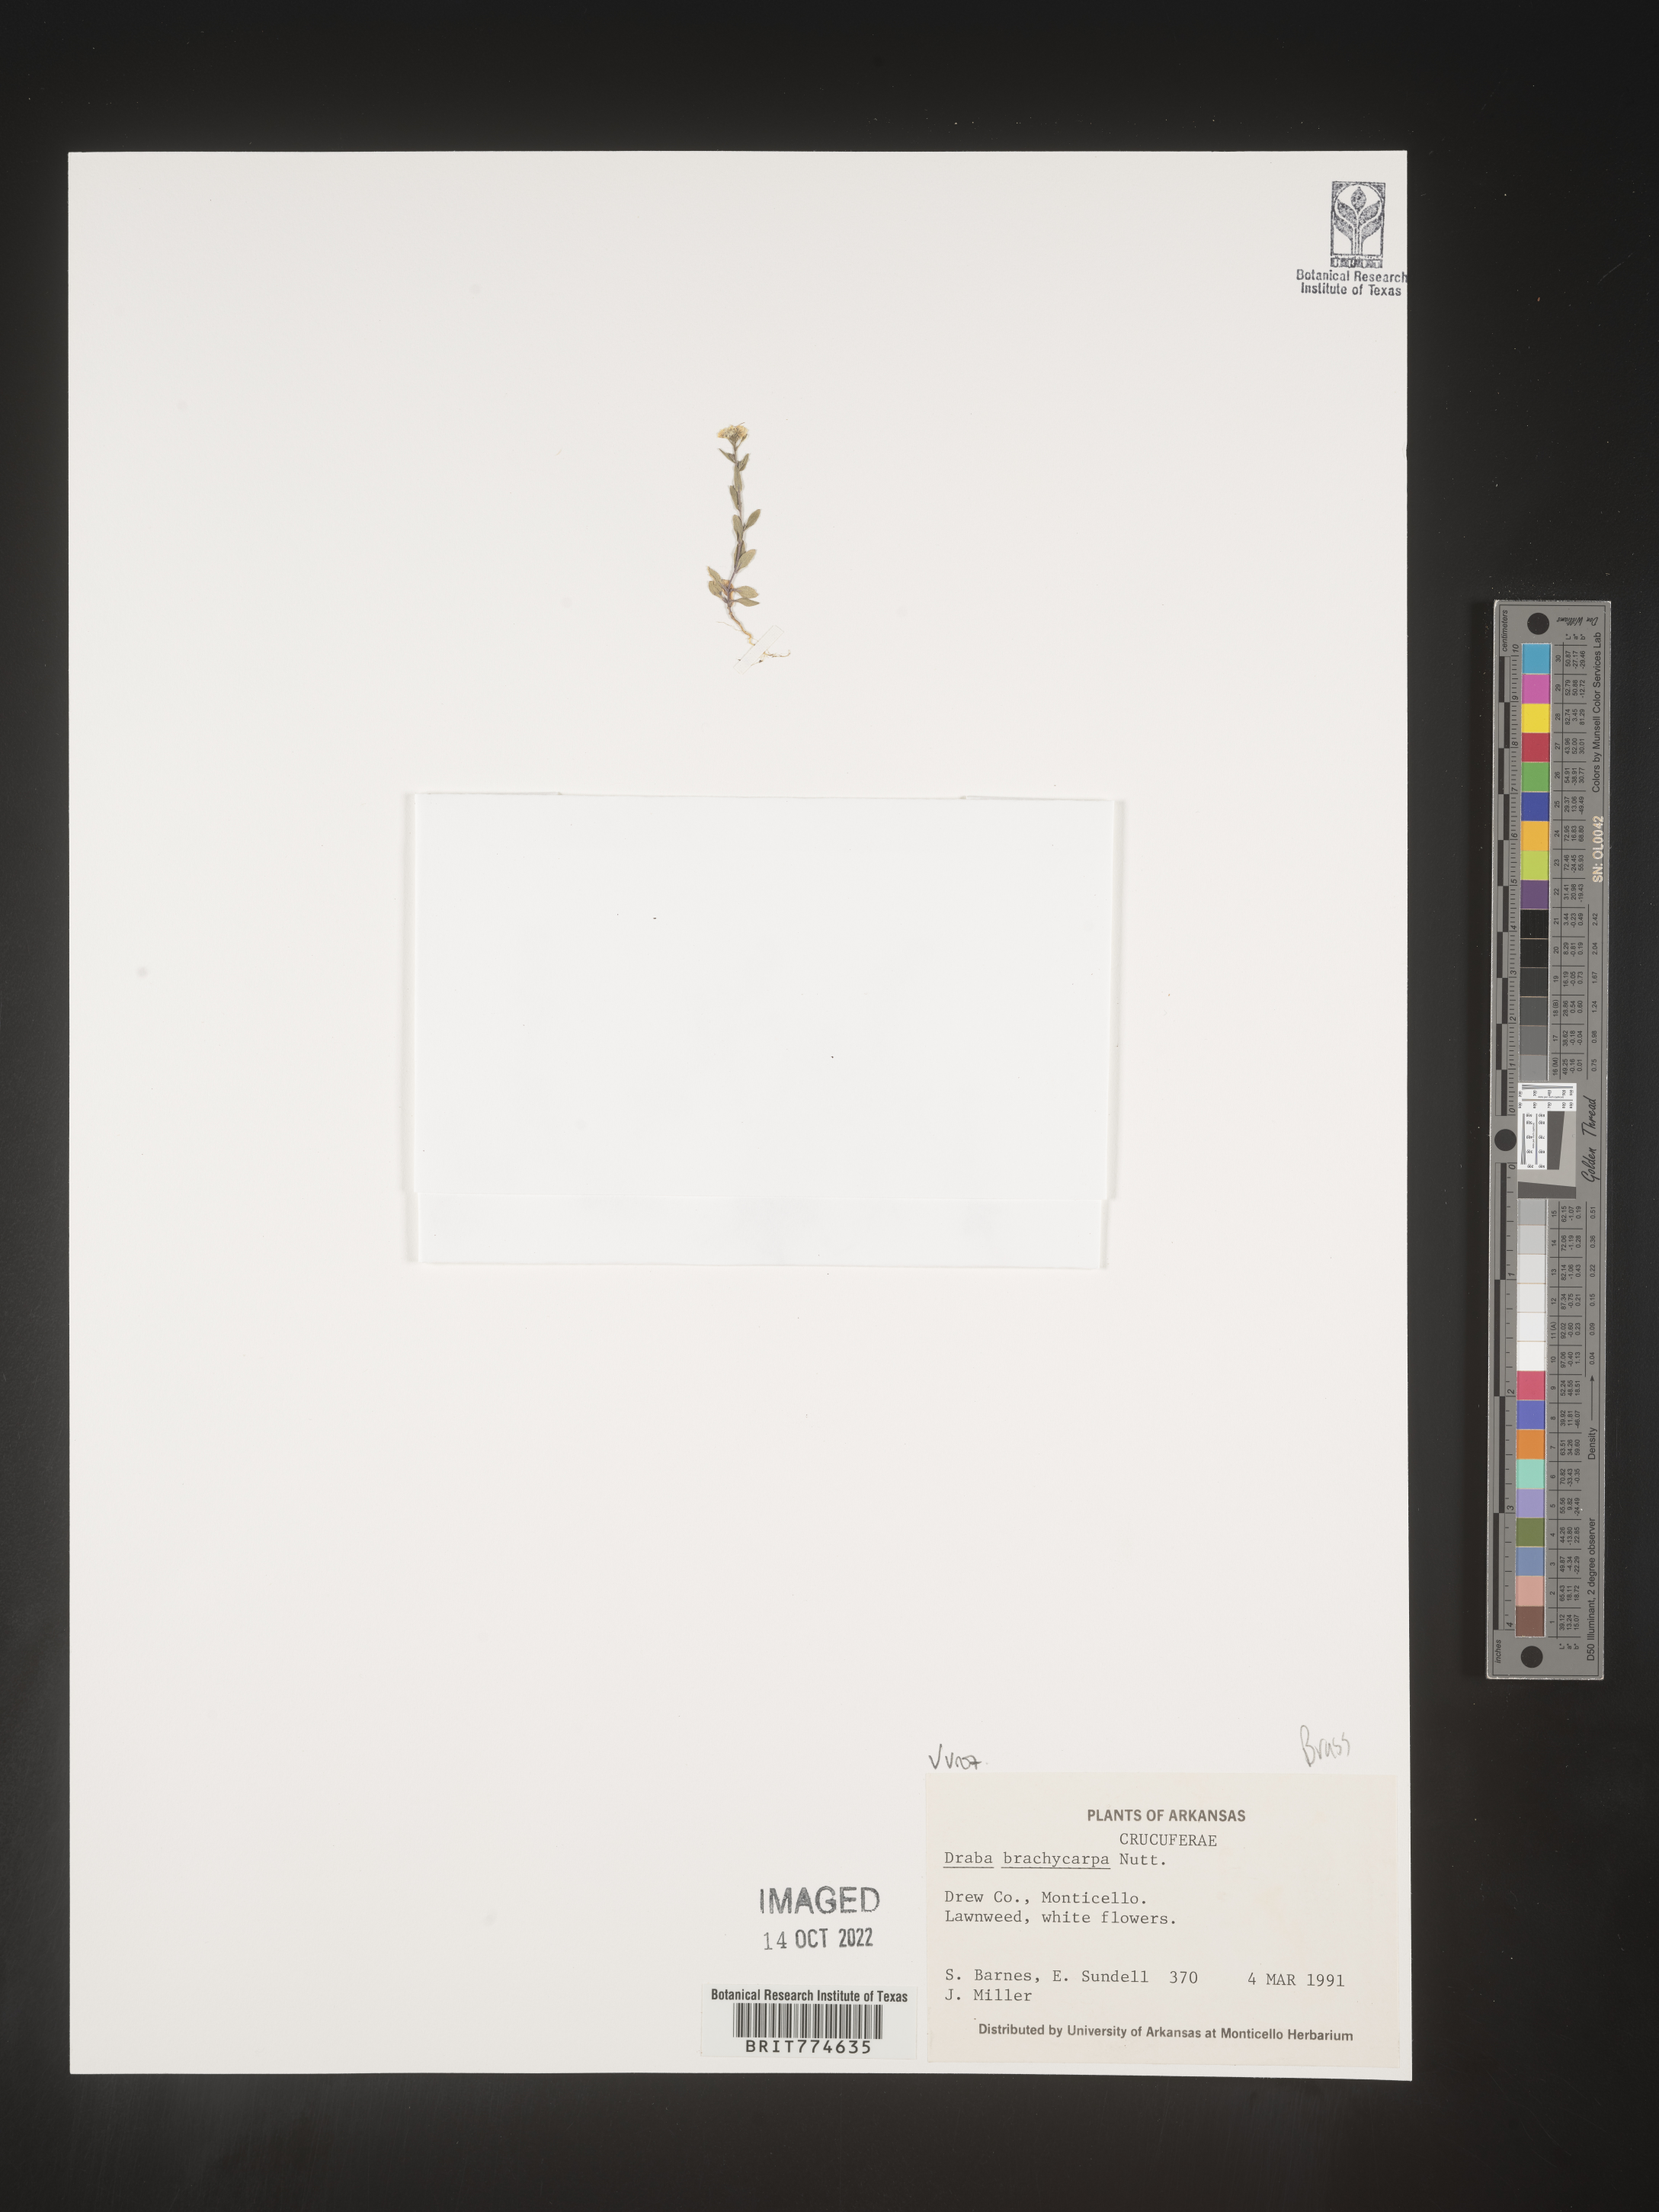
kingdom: Plantae
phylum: Tracheophyta
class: Magnoliopsida
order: Brassicales
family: Brassicaceae
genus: Abdra
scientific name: Abdra brachycarpa
